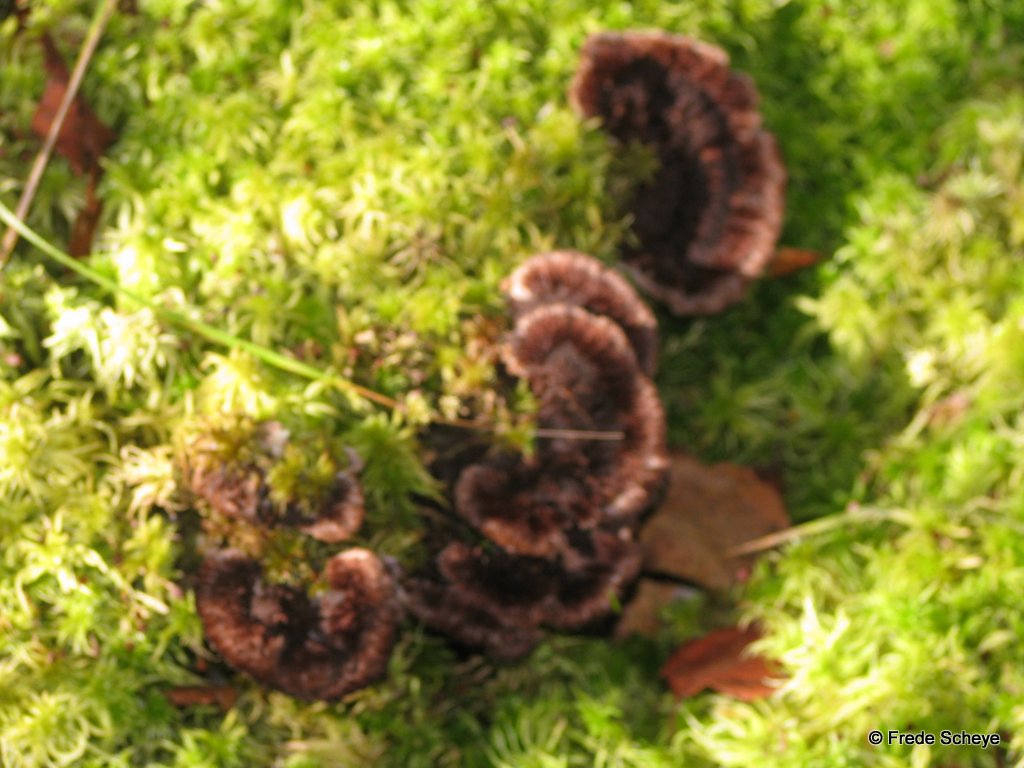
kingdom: Fungi
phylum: Basidiomycota
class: Agaricomycetes
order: Thelephorales
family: Thelephoraceae
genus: Thelephora
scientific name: Thelephora terrestris
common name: fliget frynsesvamp
